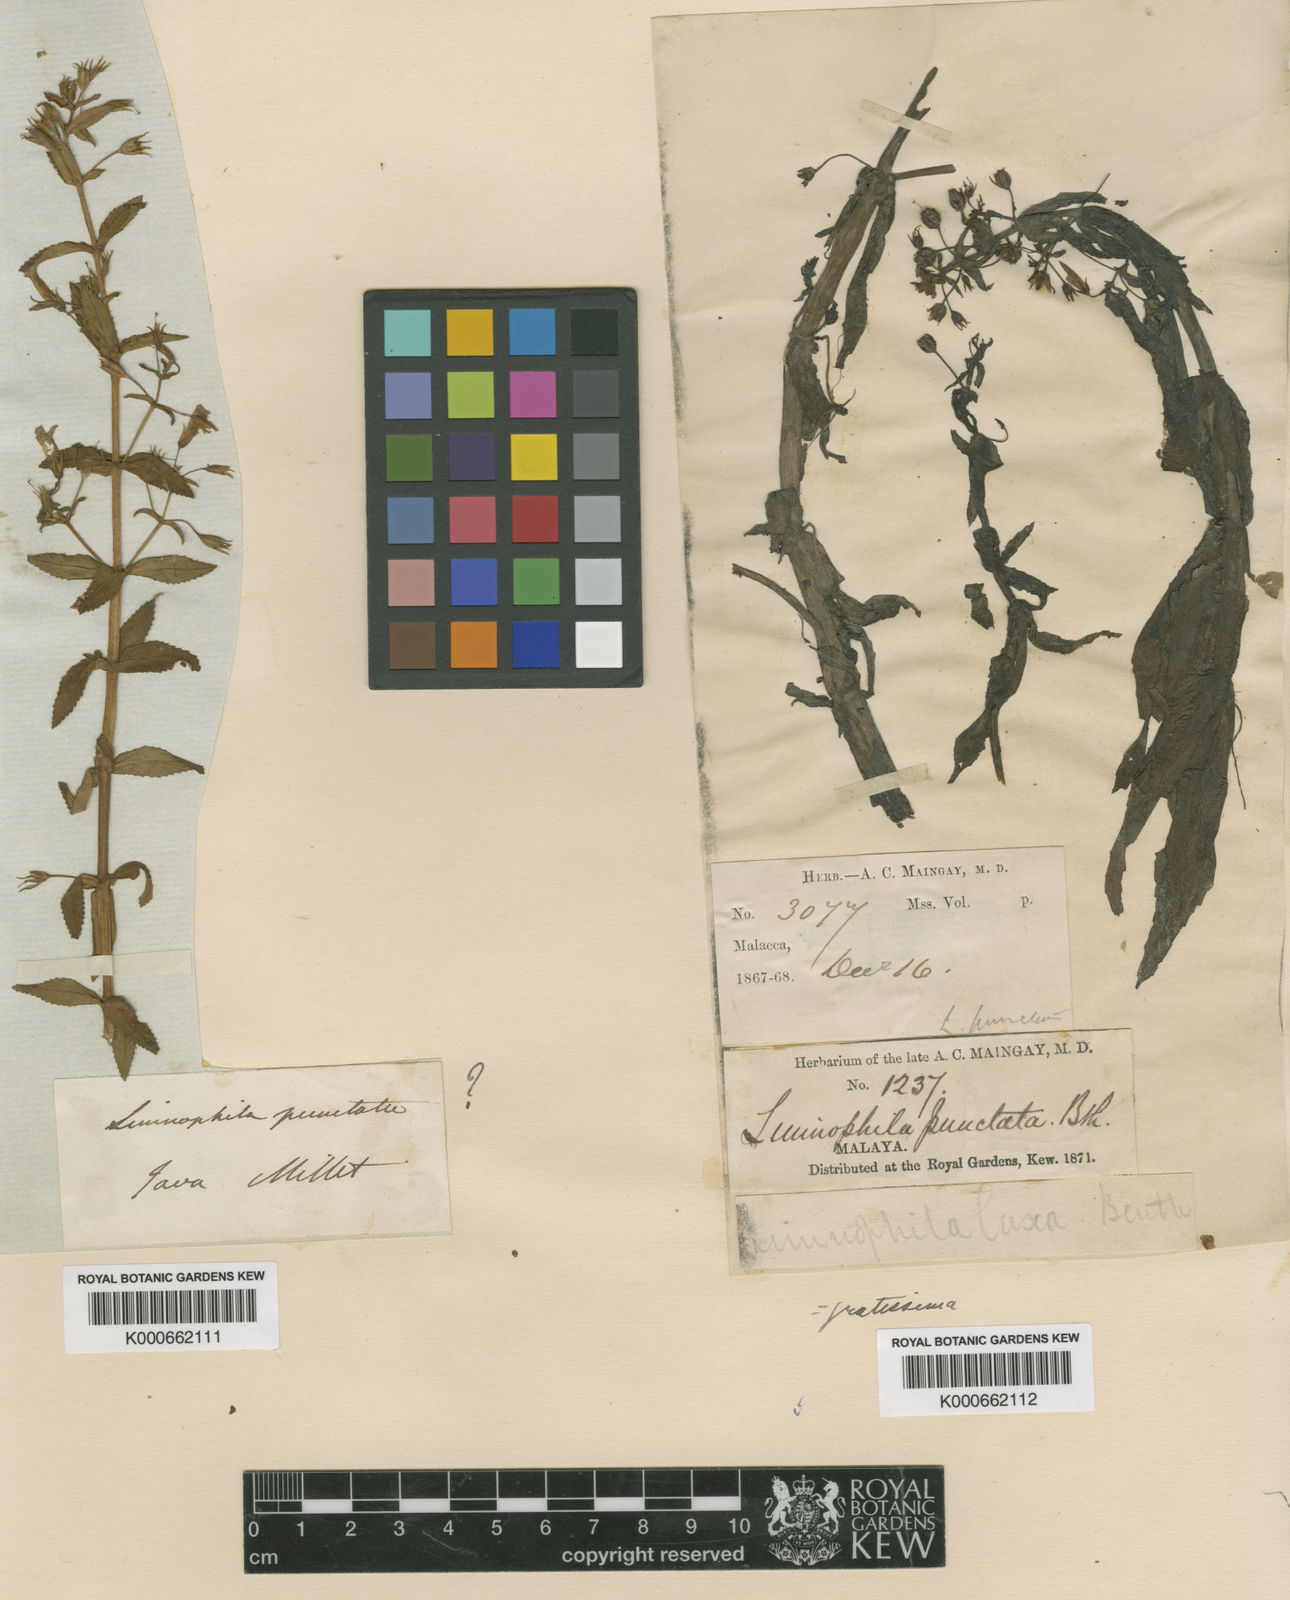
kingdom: Plantae
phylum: Tracheophyta
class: Magnoliopsida
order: Lamiales
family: Plantaginaceae
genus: Limnophila
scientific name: Limnophila aromatica
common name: Finger grass
